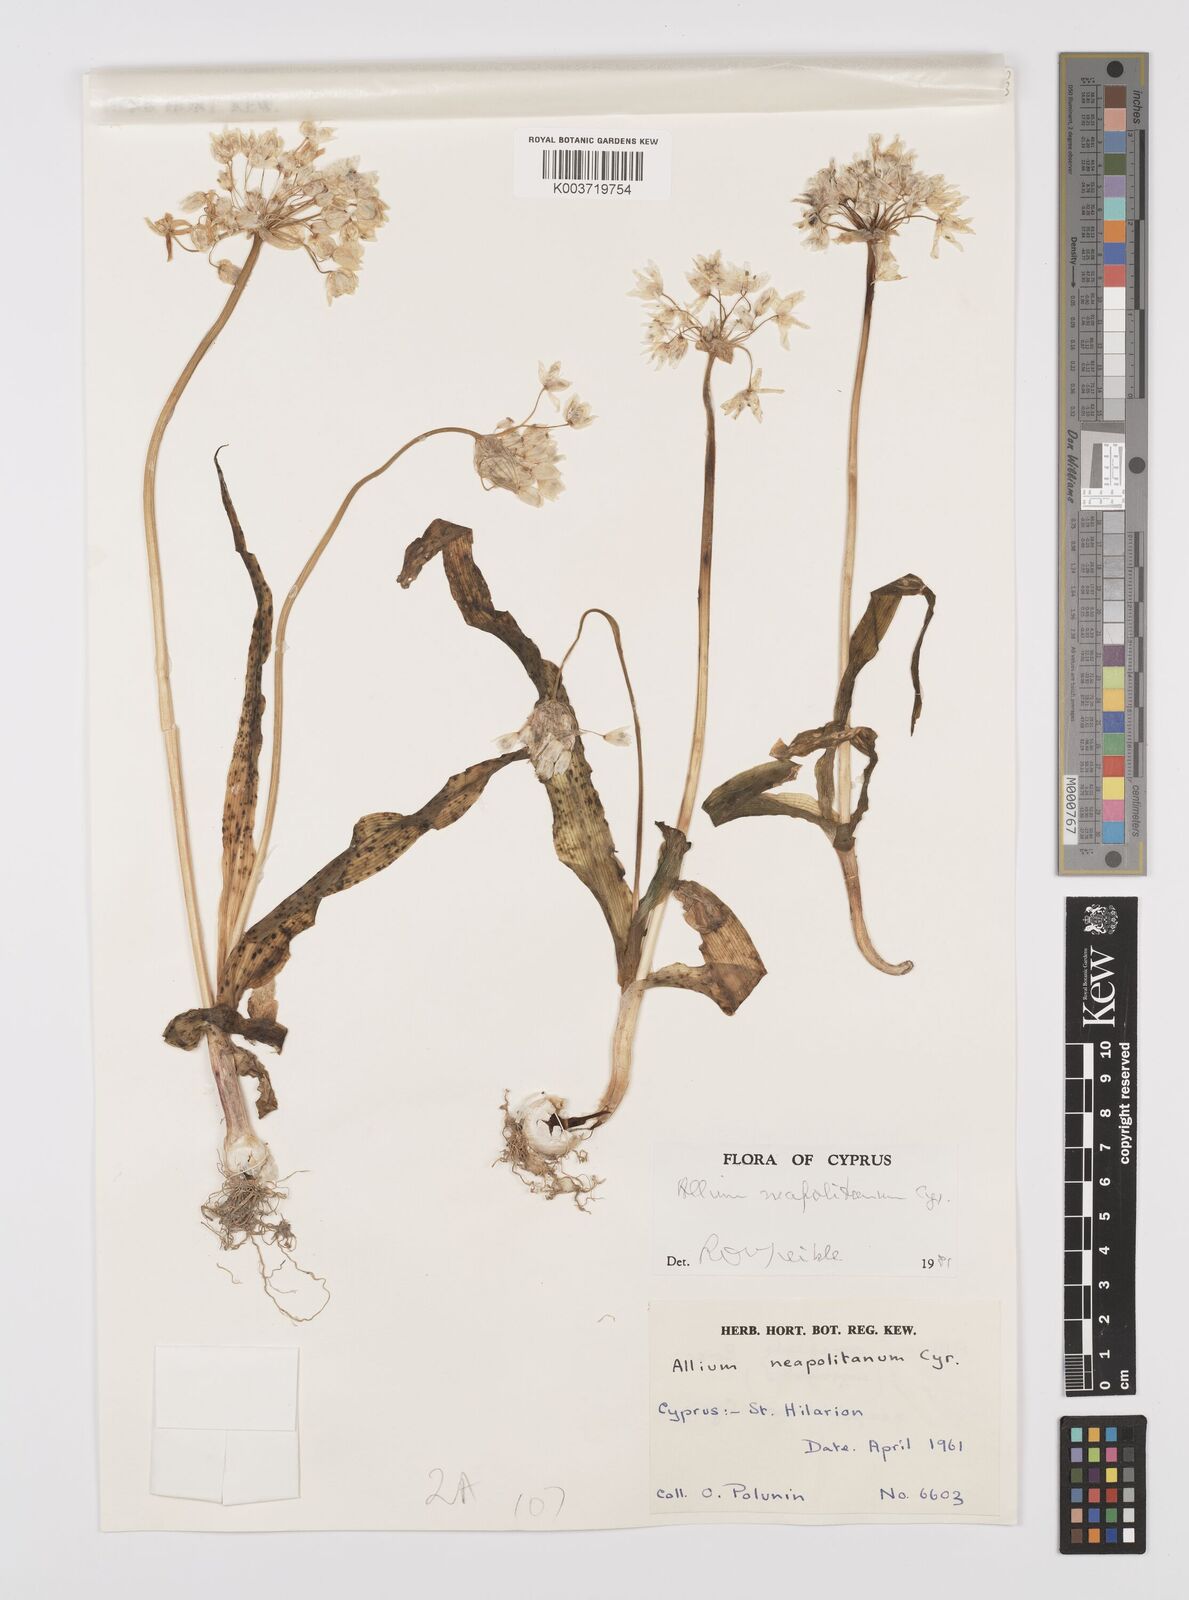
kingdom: Plantae
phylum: Tracheophyta
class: Liliopsida
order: Asparagales
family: Amaryllidaceae
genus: Allium
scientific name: Allium neapolitanum
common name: Neapolitan garlic
